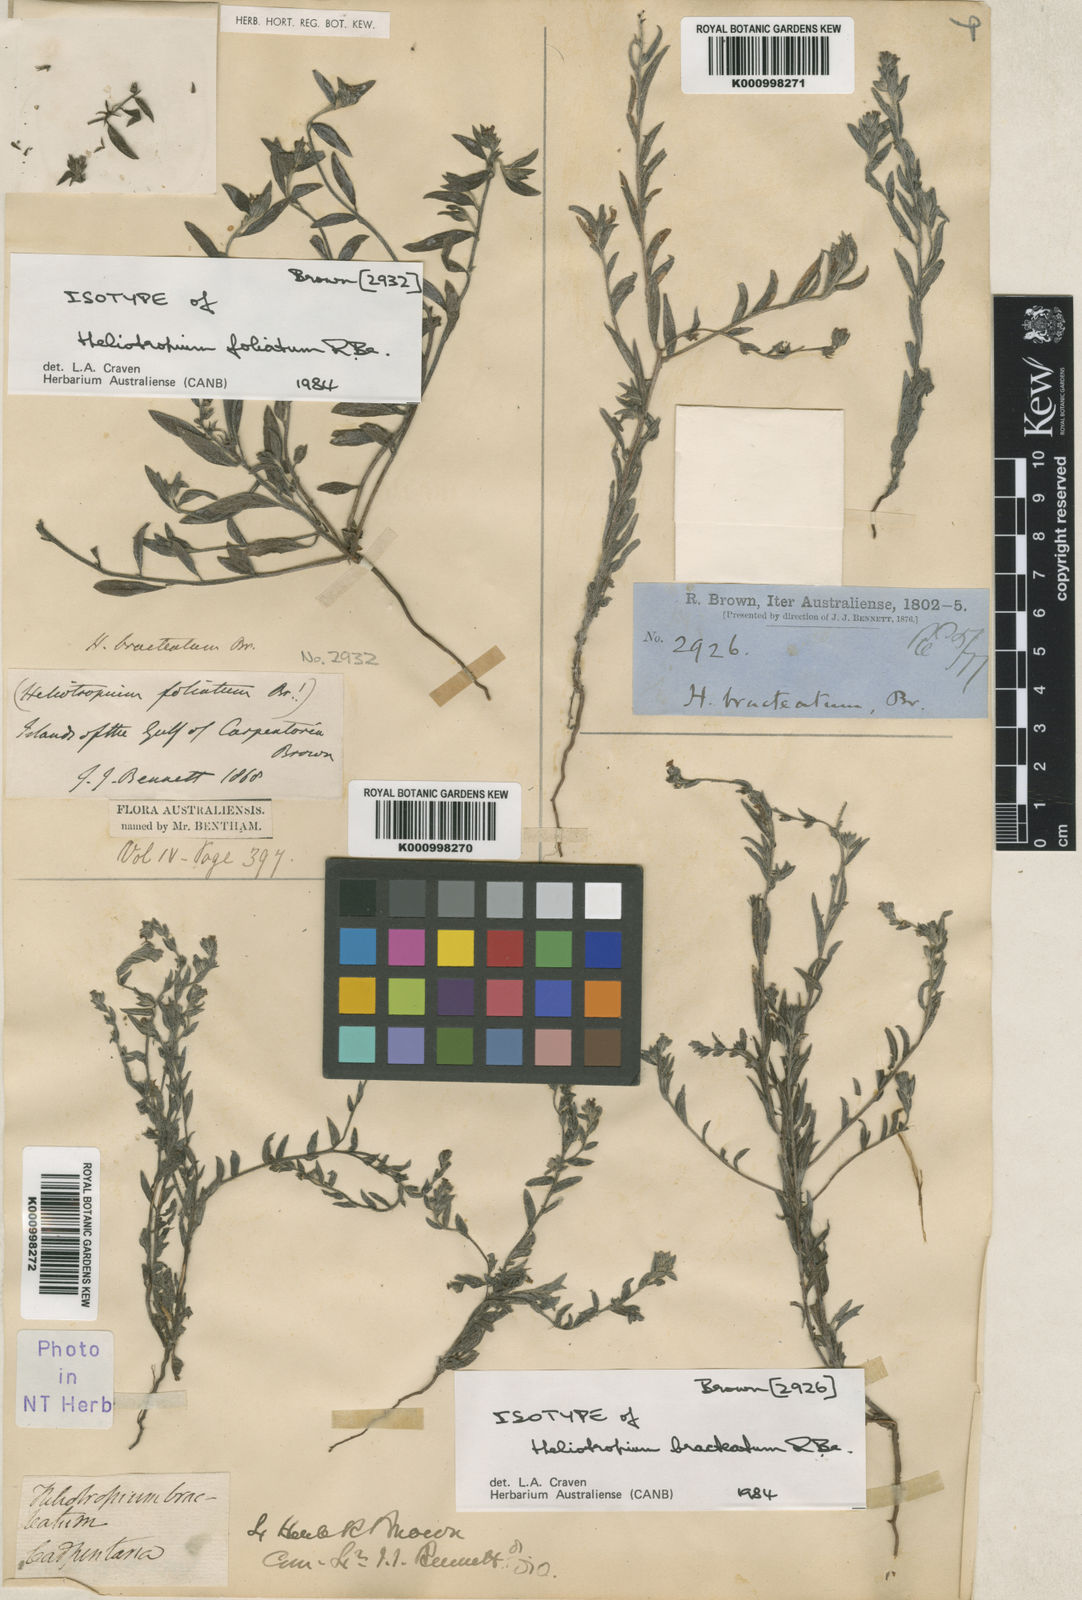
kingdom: Plantae
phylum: Tracheophyta
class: Magnoliopsida
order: Boraginales
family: Heliotropiaceae
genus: Euploca
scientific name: Euploca bracteata
